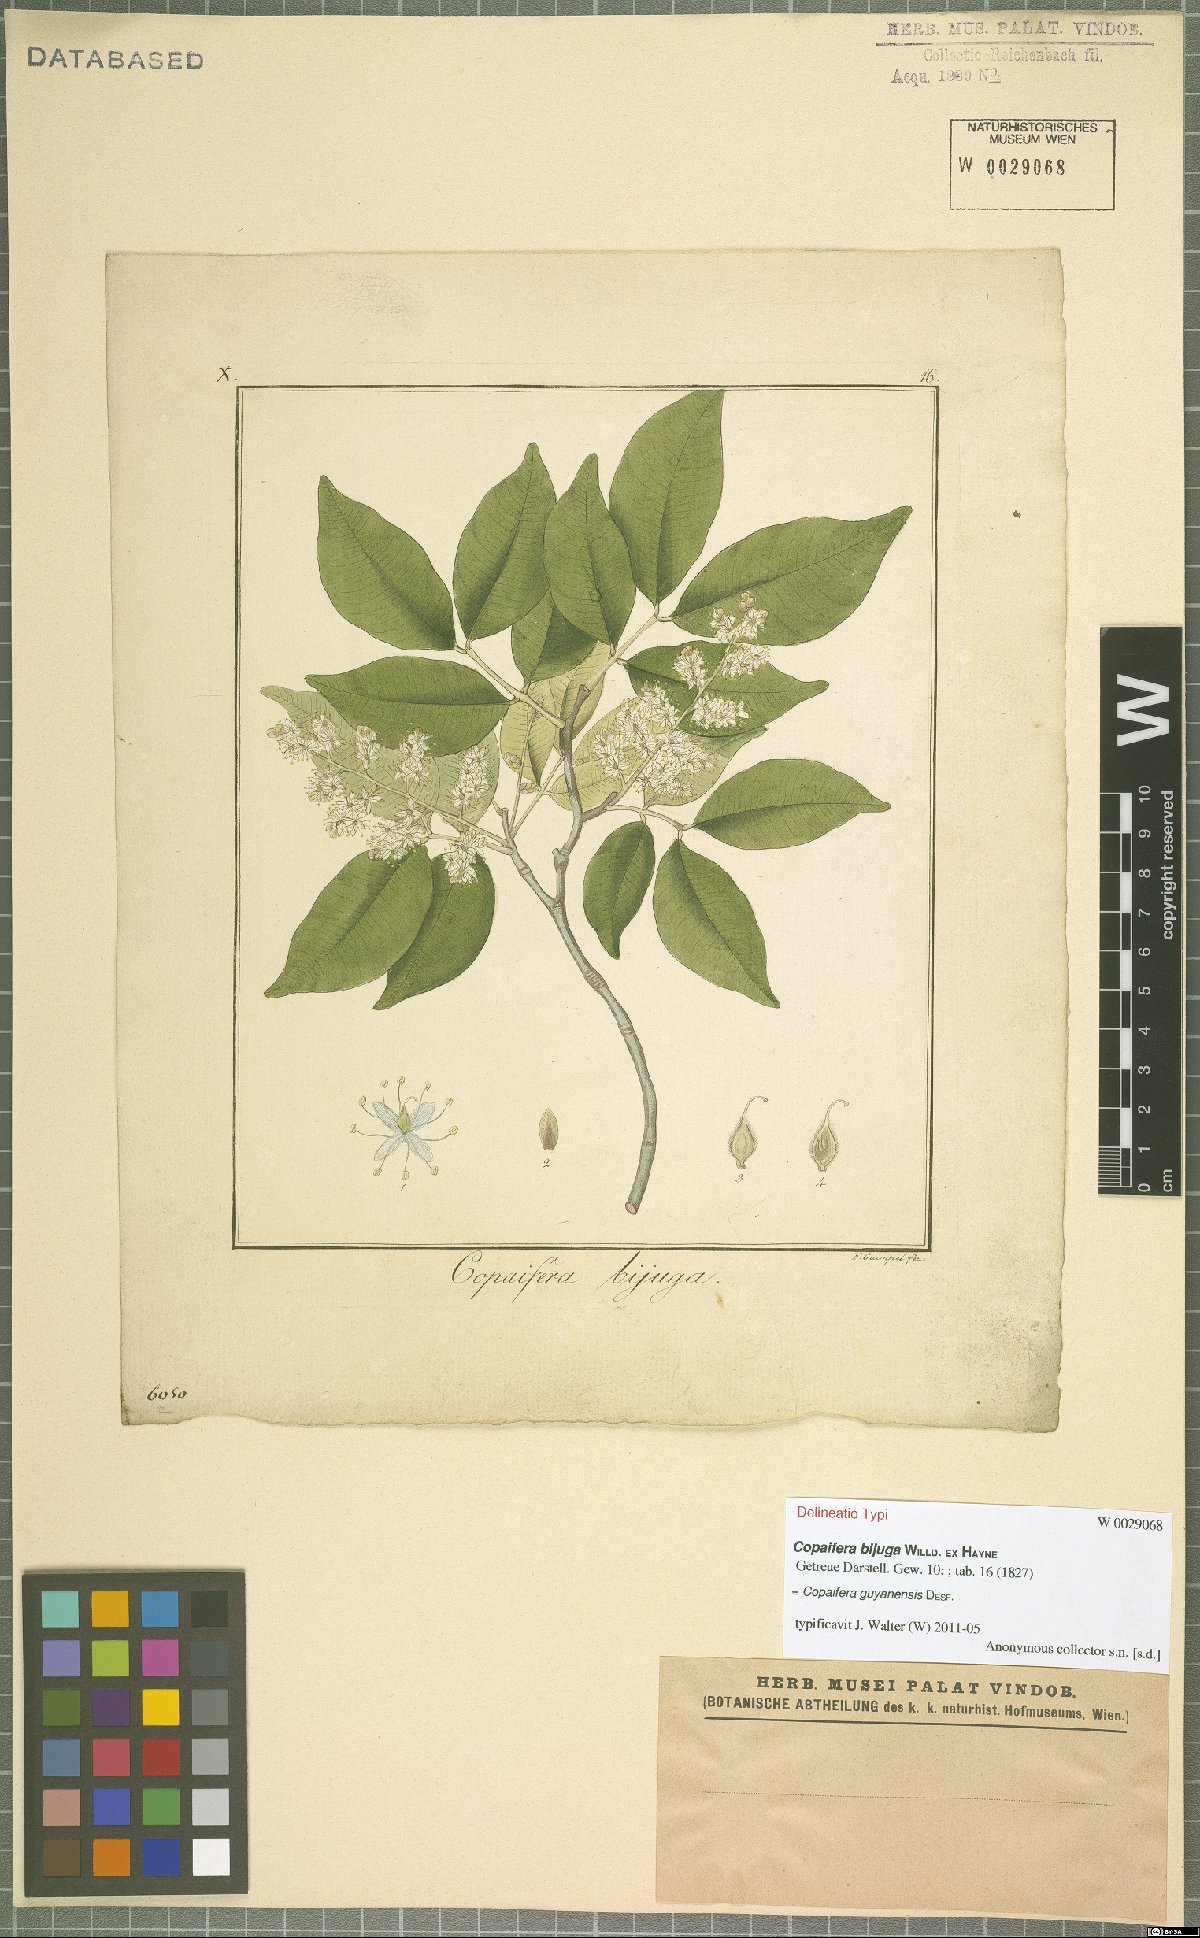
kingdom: Plantae
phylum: Tracheophyta
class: Magnoliopsida
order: Fabales
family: Fabaceae
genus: Copaifera
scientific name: Copaifera guianensis
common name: Copaiba
